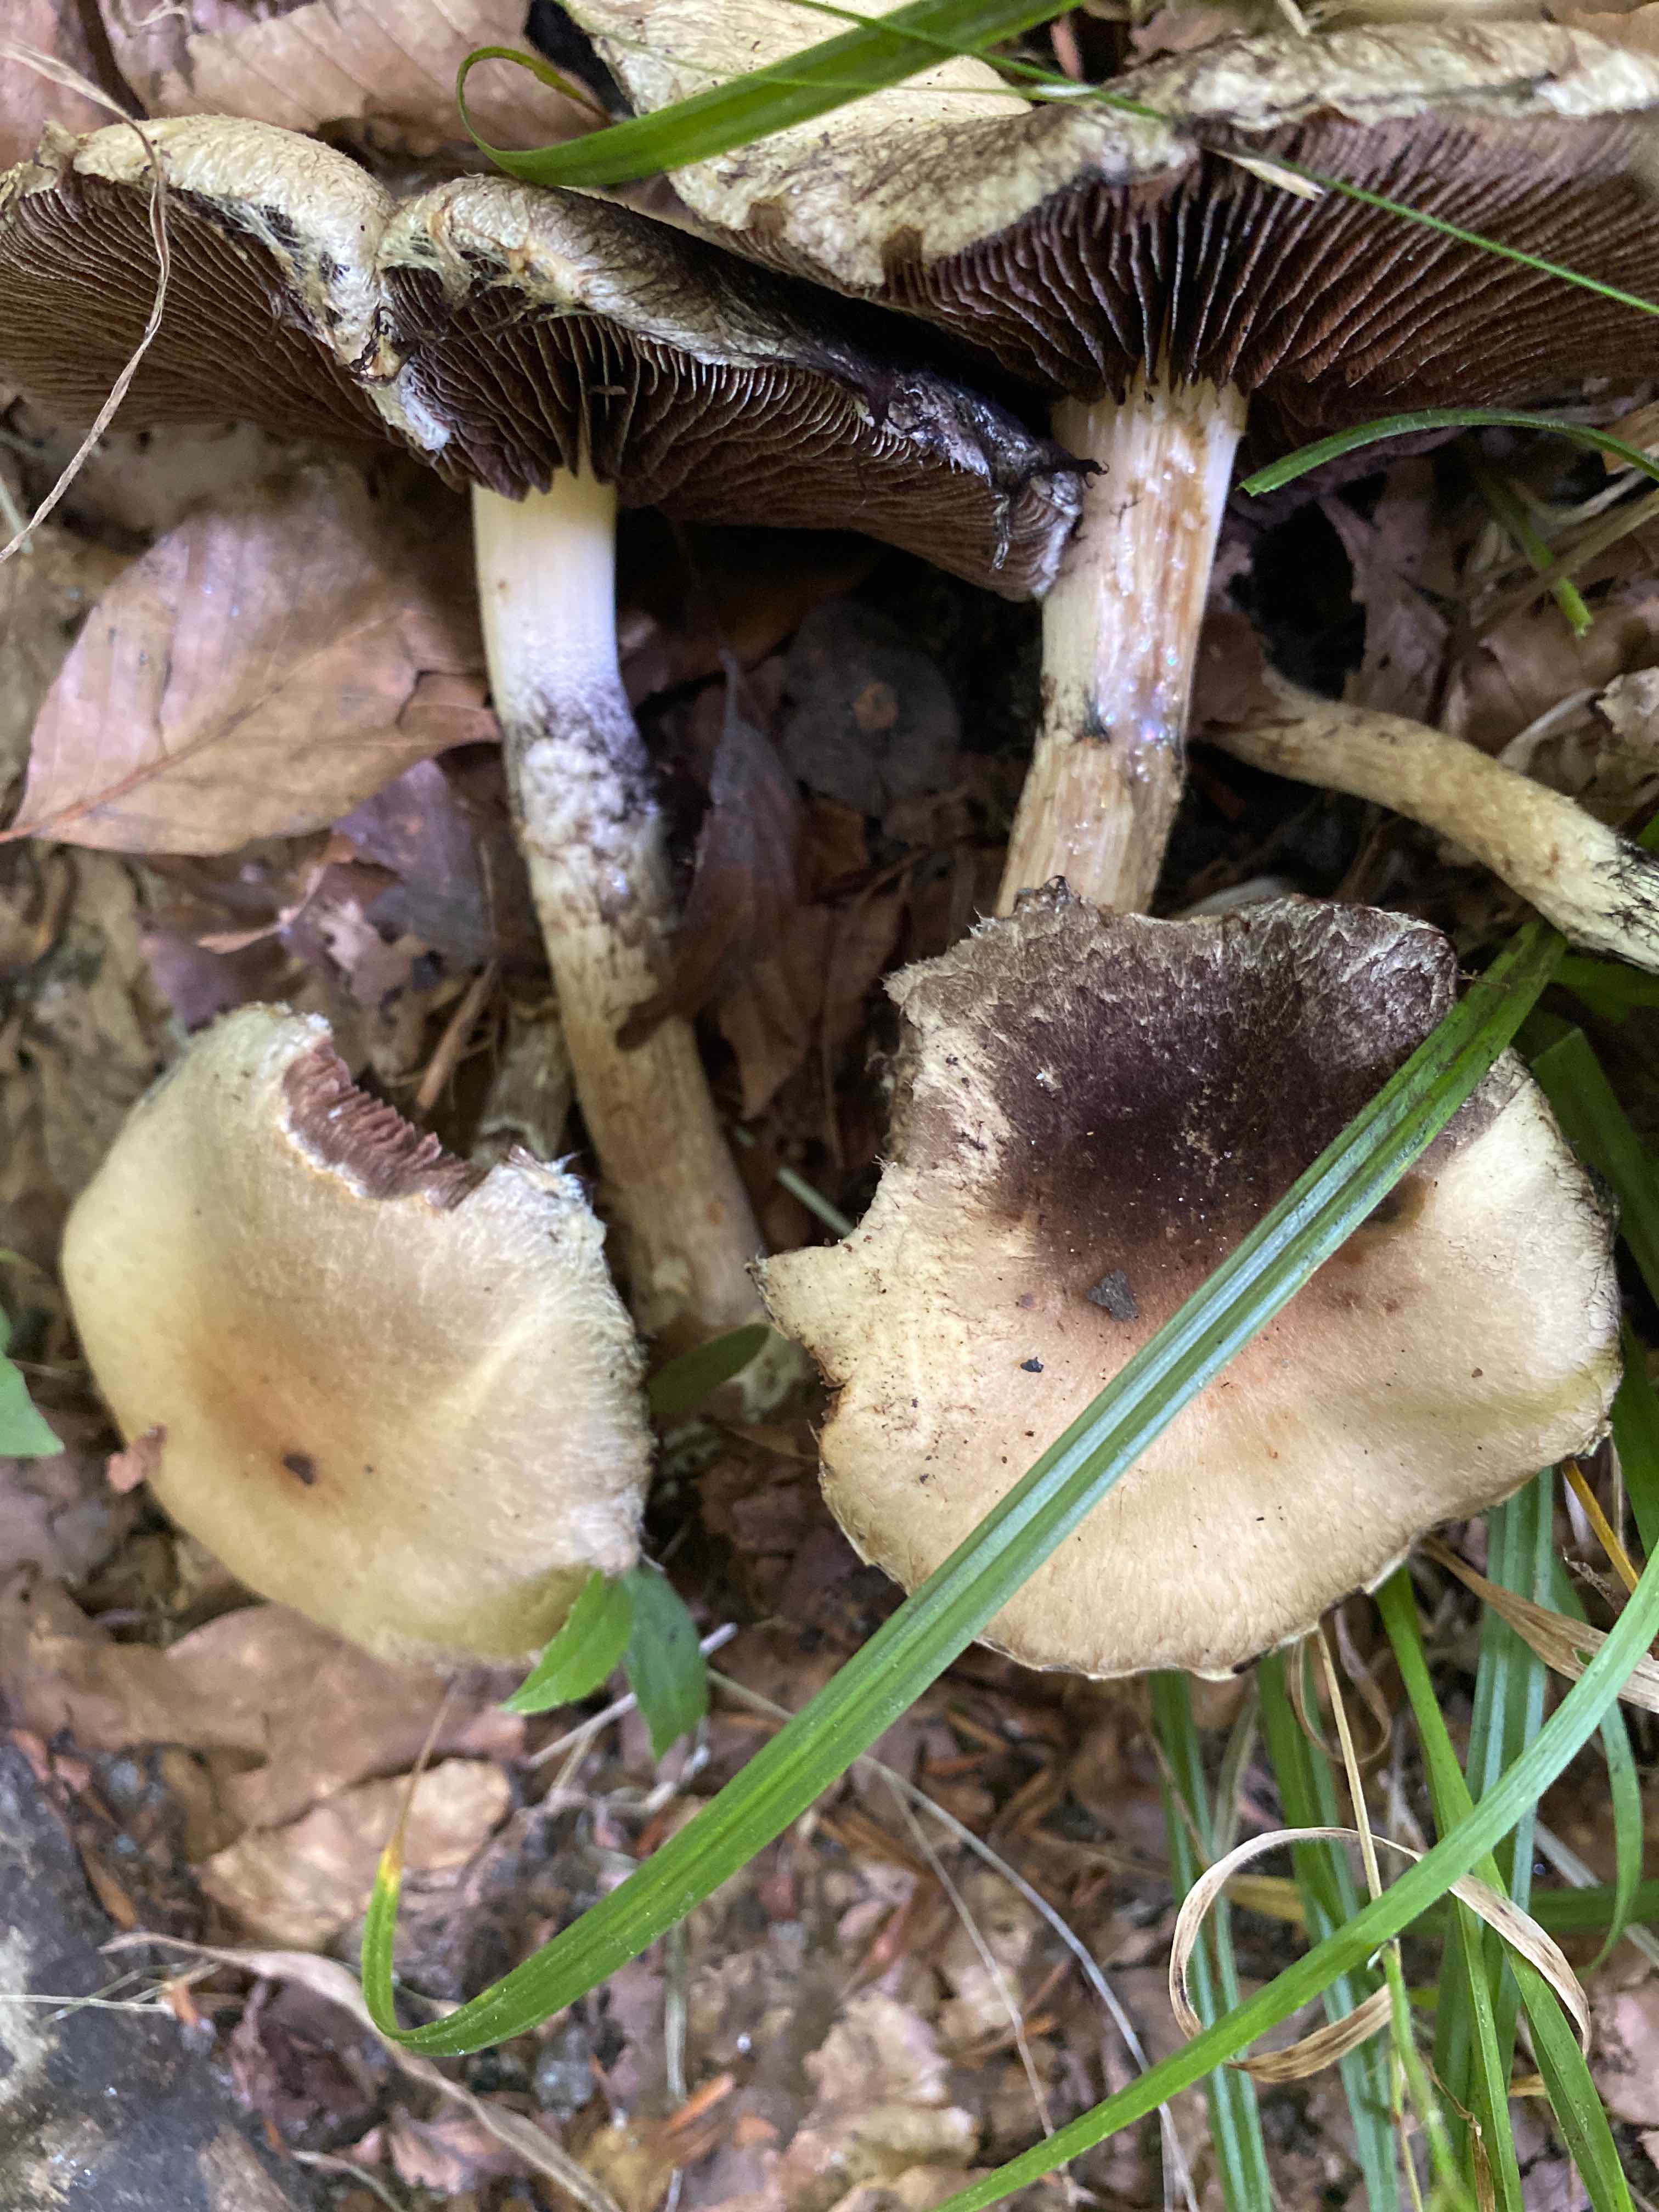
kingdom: Fungi
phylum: Basidiomycota
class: Agaricomycetes
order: Agaricales
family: Psathyrellaceae
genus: Lacrymaria
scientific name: Lacrymaria lacrymabunda
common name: grædende mørkhat
